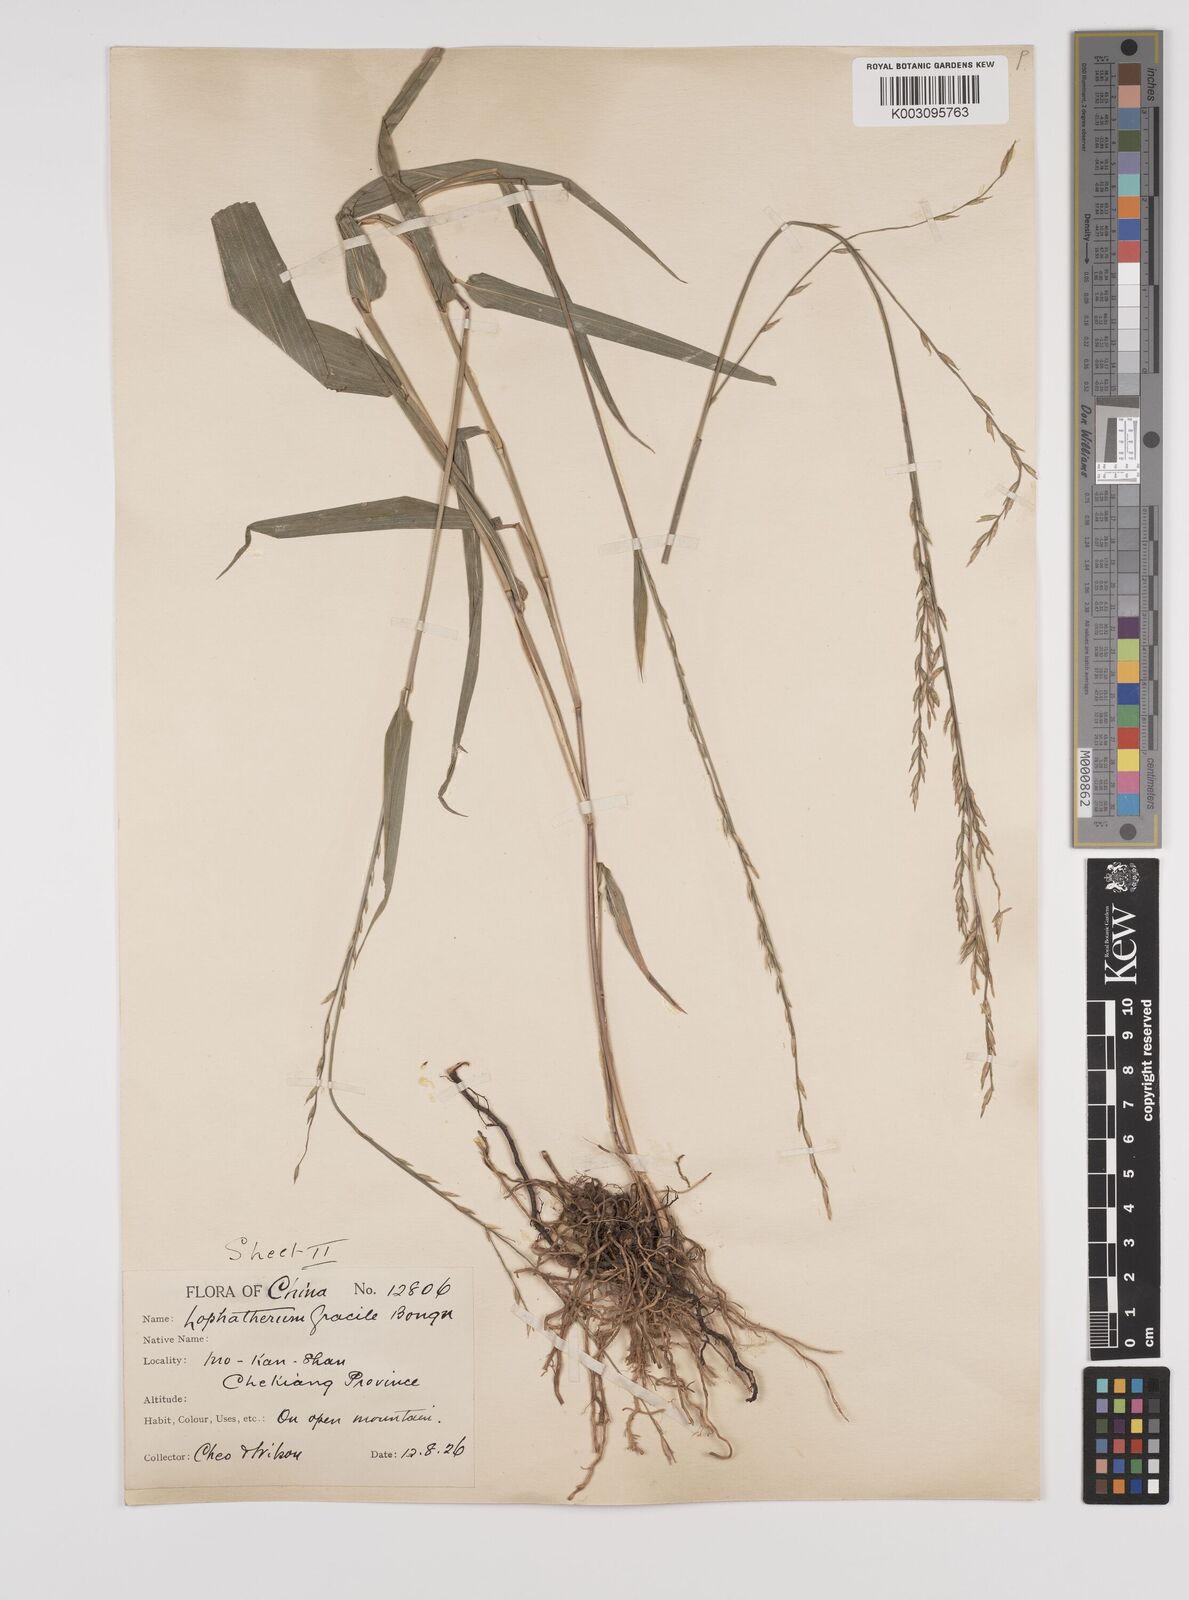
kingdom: Plantae
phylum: Tracheophyta
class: Liliopsida
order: Poales
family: Poaceae
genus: Lophatherum
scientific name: Lophatherum gracile
